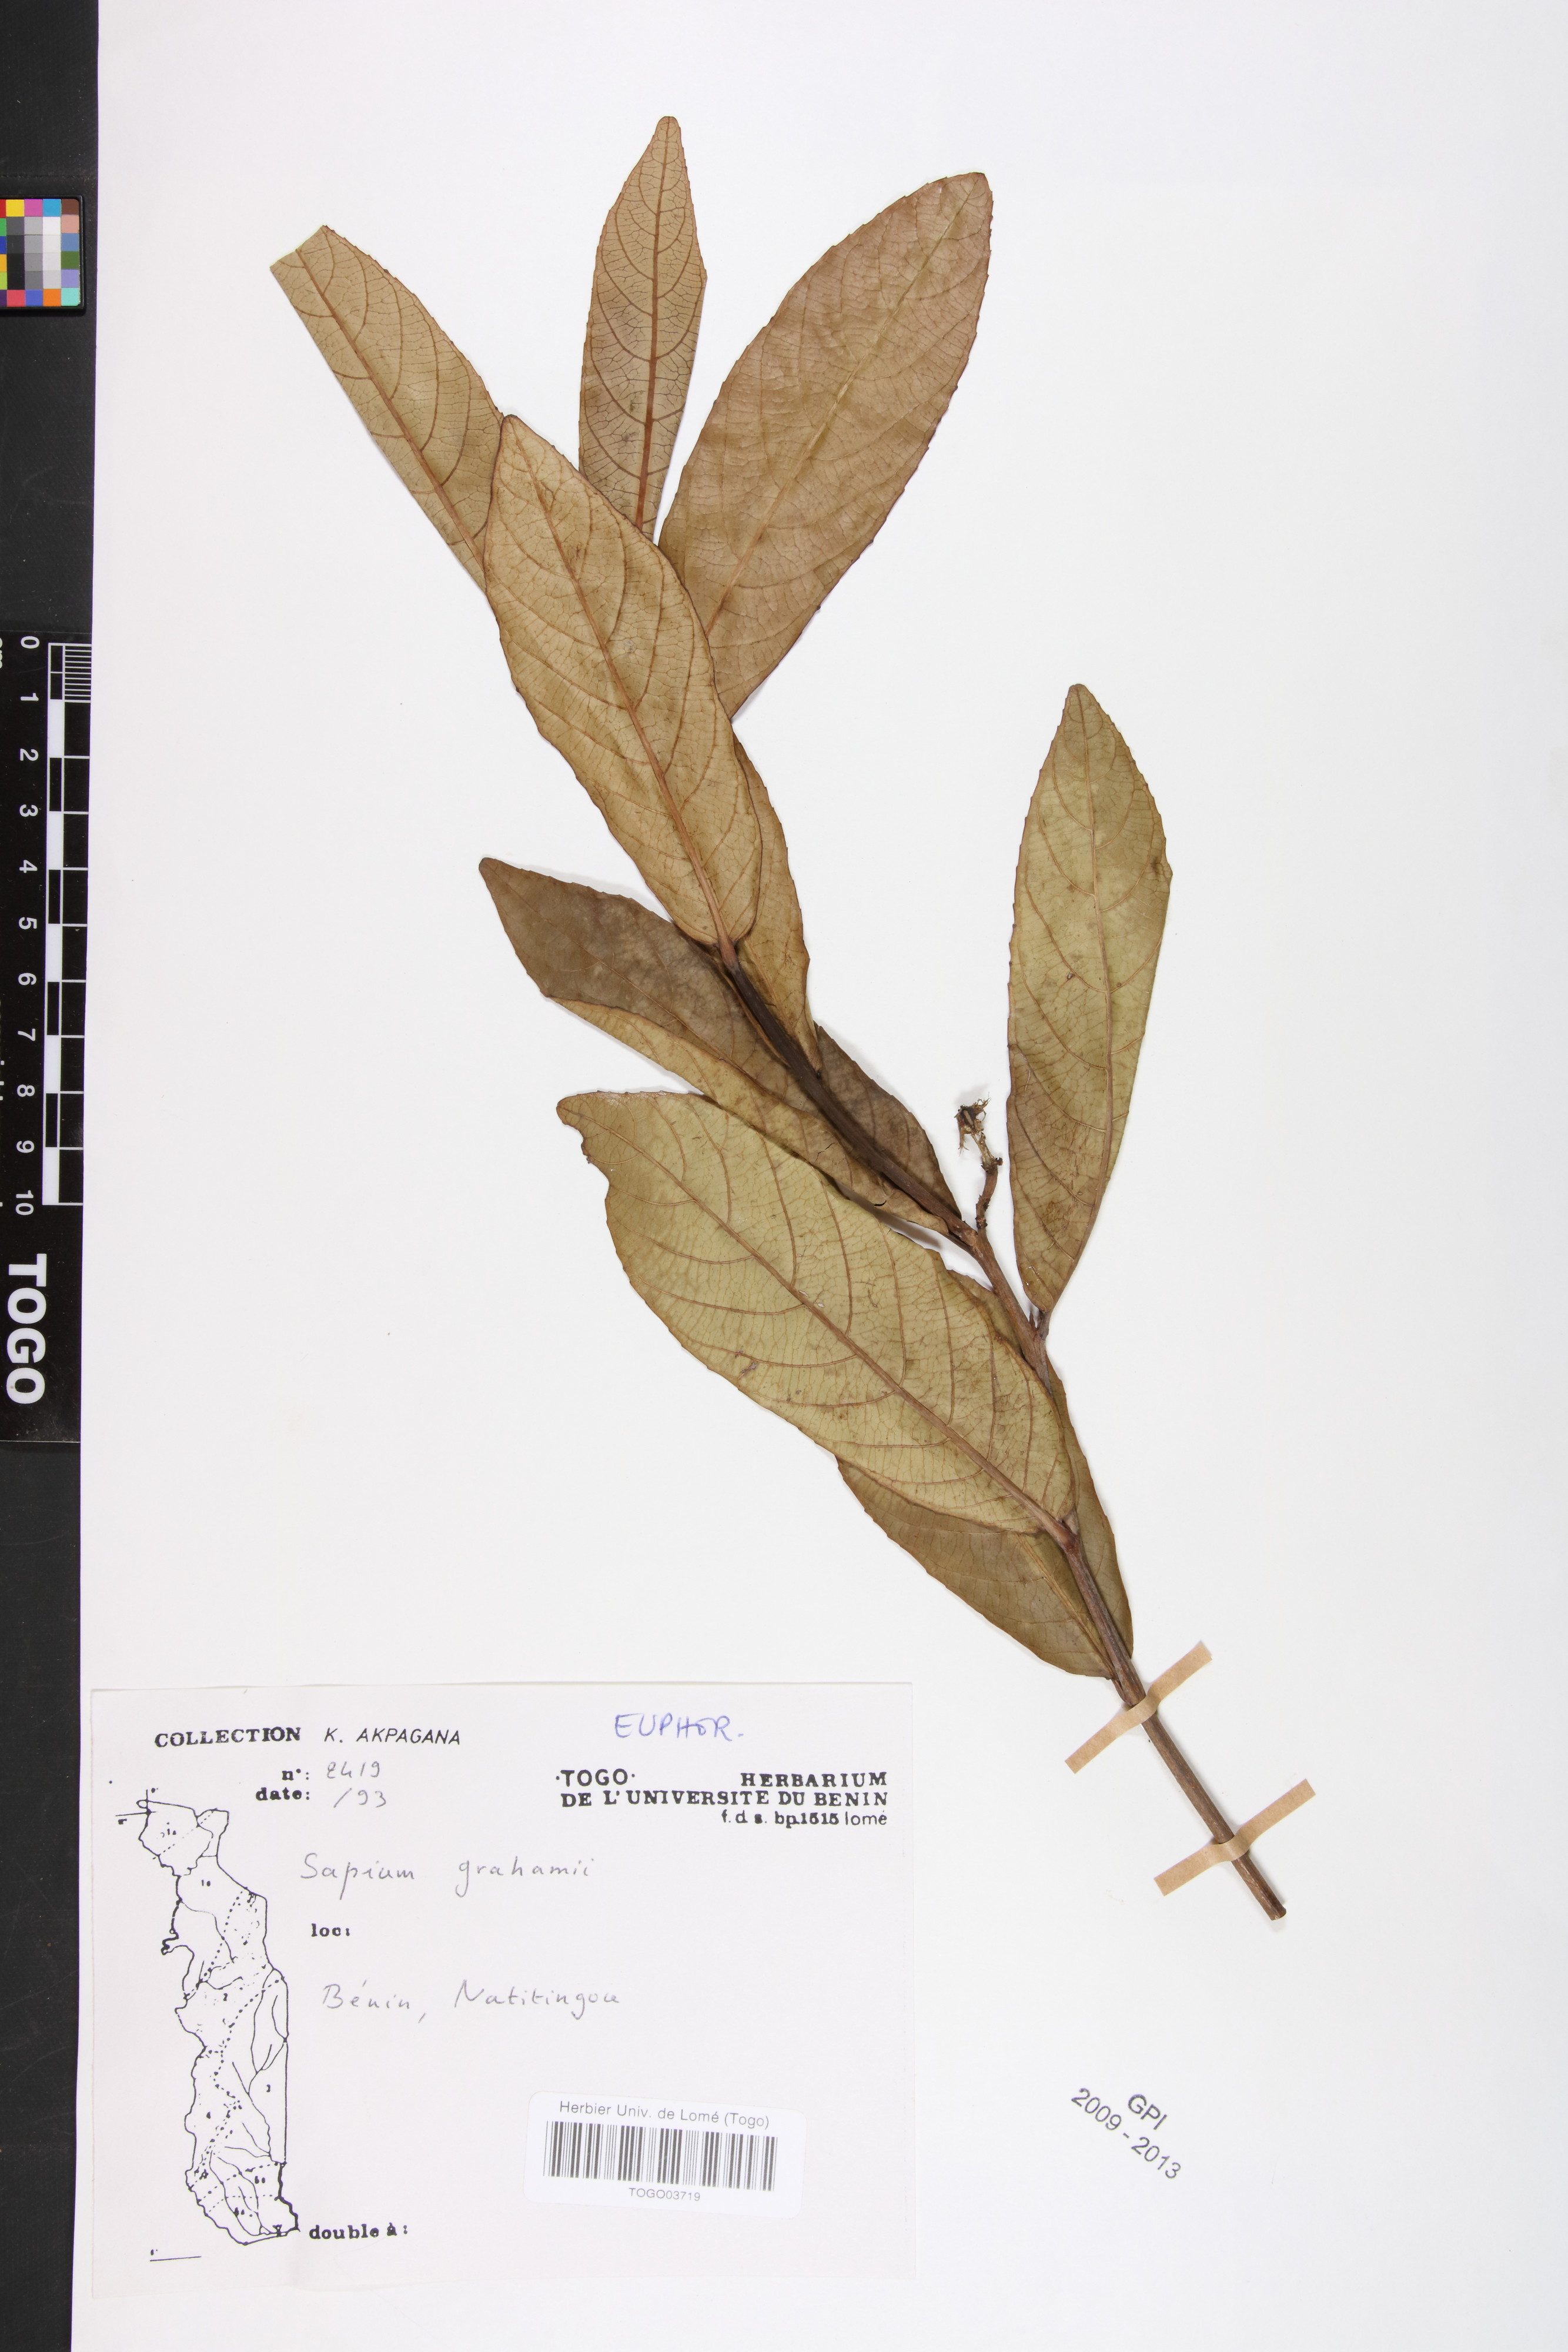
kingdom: Plantae
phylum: Tracheophyta
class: Magnoliopsida
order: Malpighiales
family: Euphorbiaceae
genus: Excoecaria
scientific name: Excoecaria grahamii
